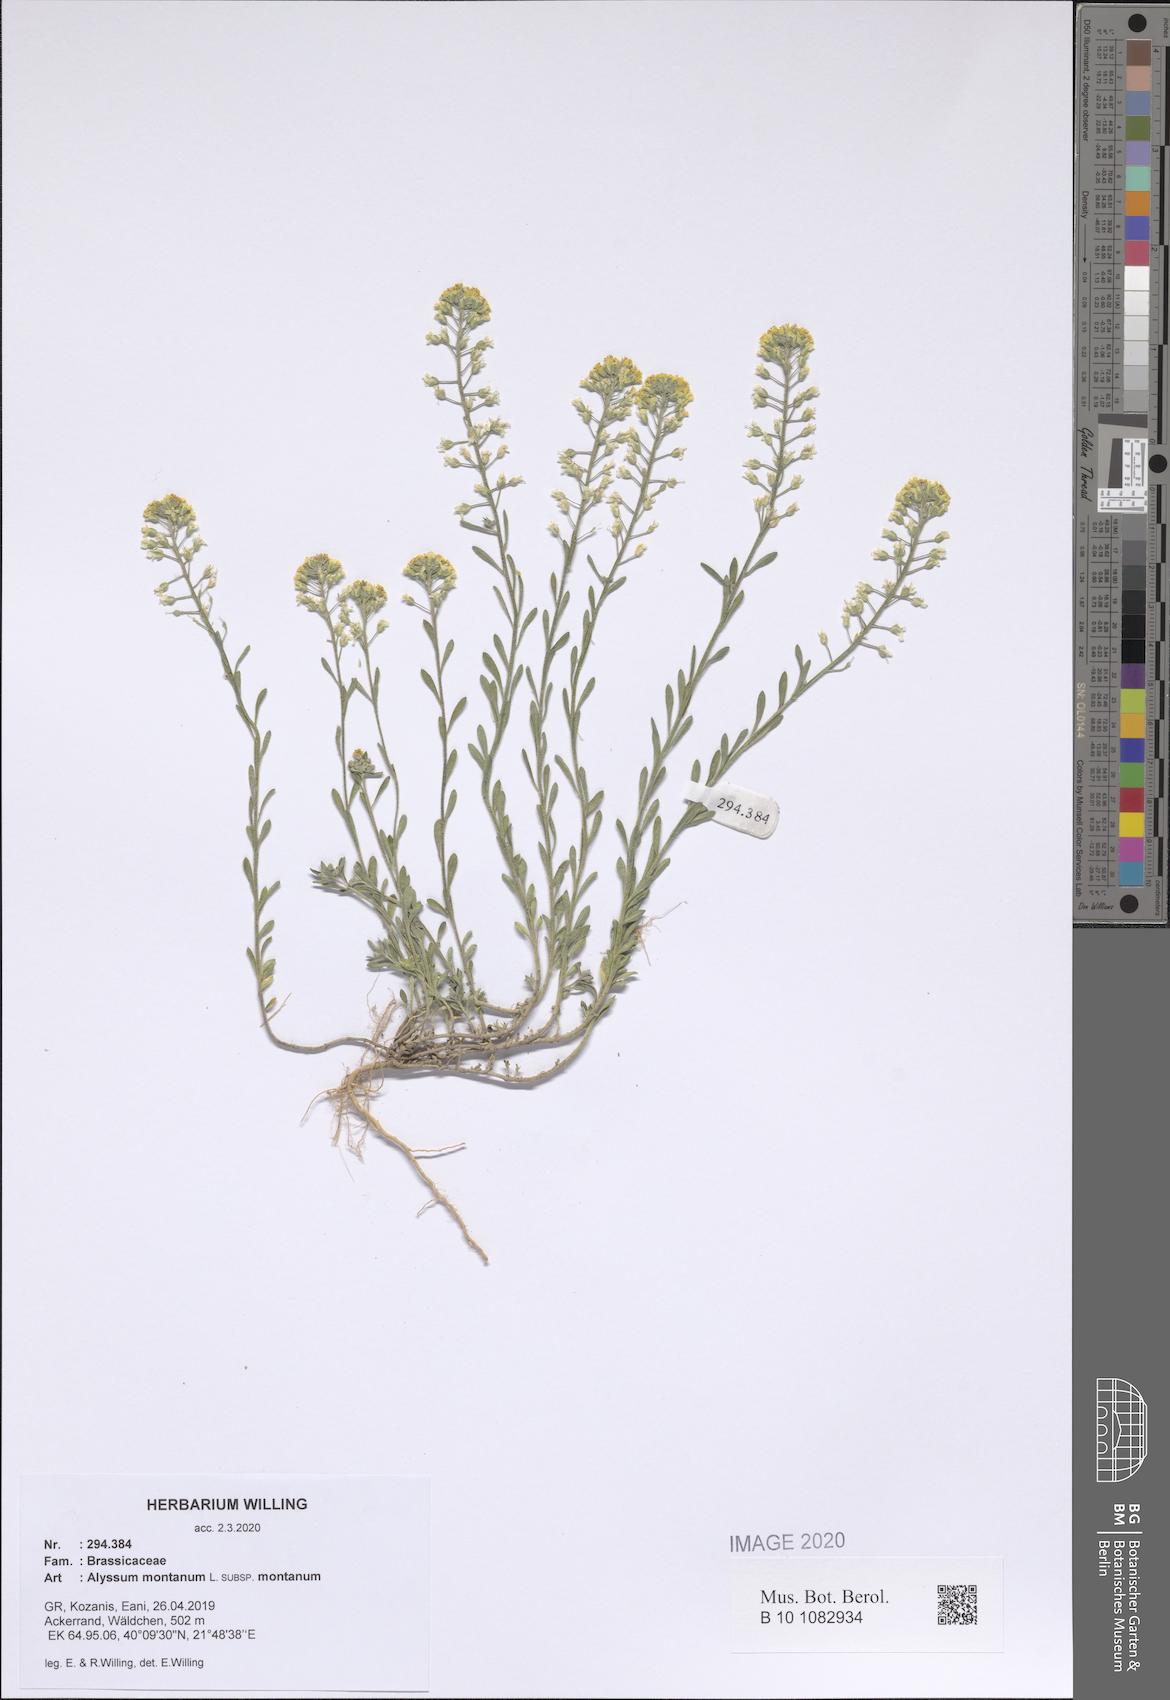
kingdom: Plantae
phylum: Tracheophyta
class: Magnoliopsida
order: Brassicales
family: Brassicaceae
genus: Alyssum
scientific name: Alyssum montanum
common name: Mountain alison
